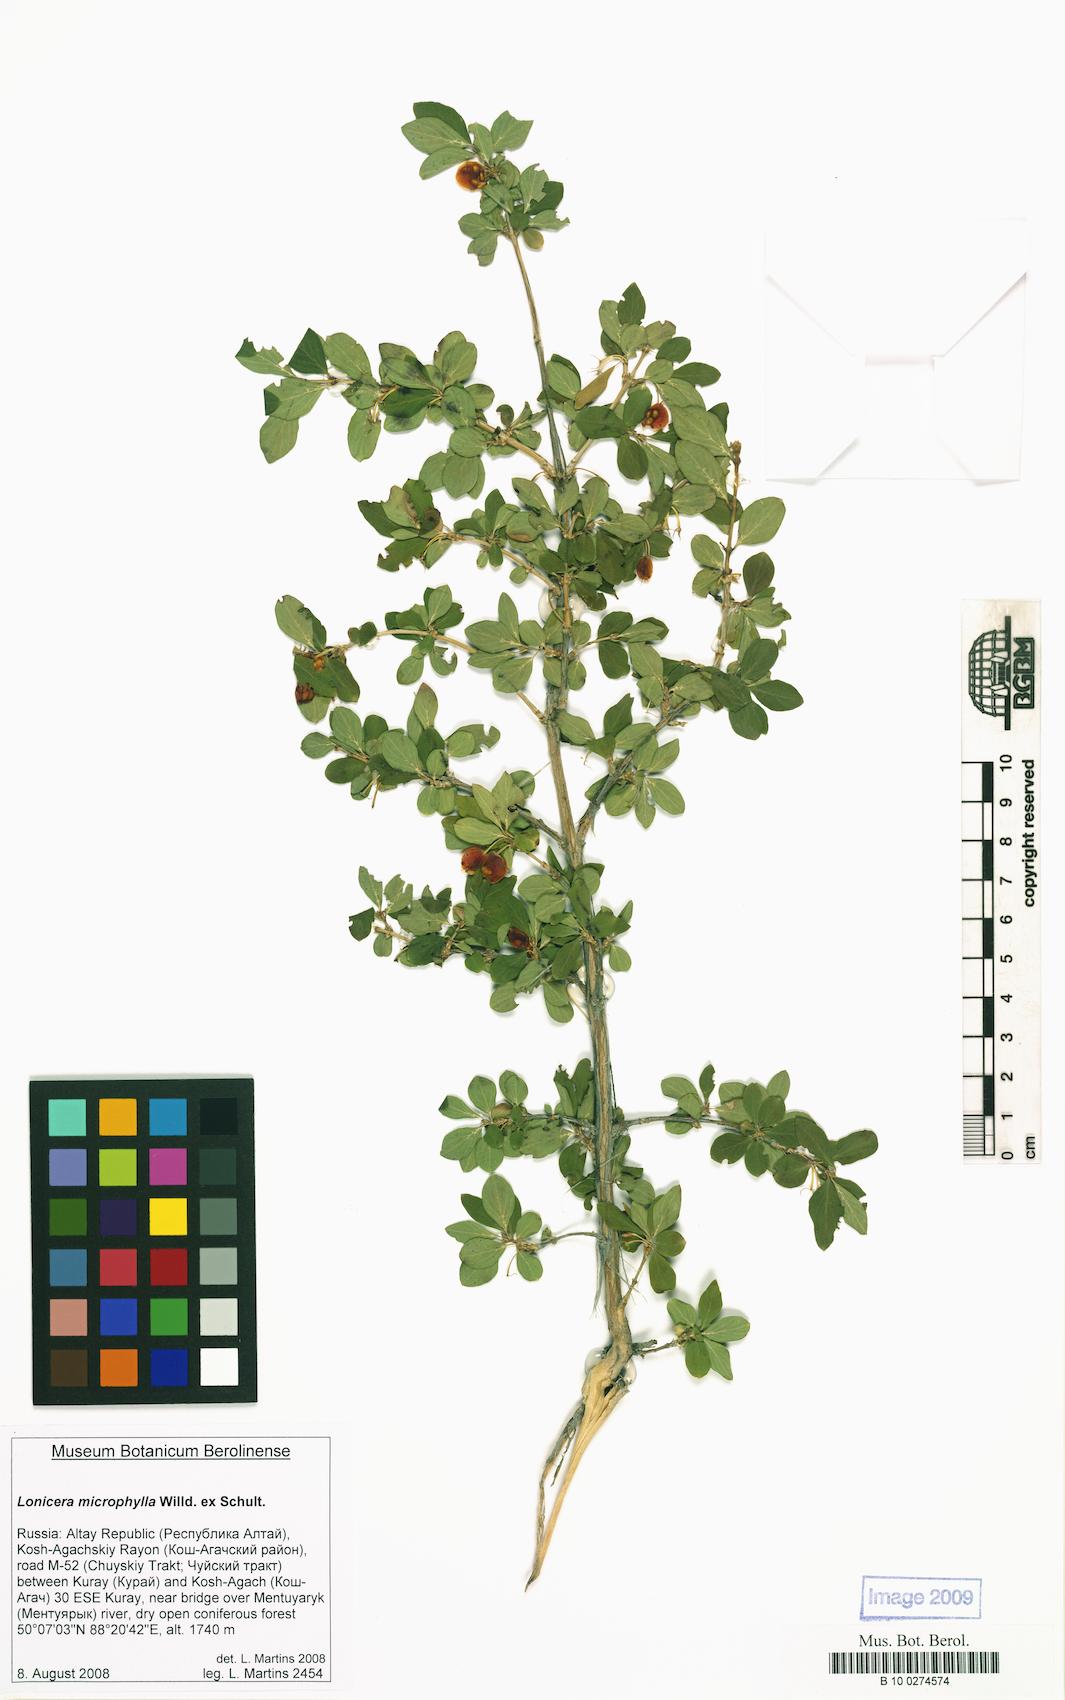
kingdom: Plantae
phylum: Tracheophyta
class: Magnoliopsida
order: Dipsacales
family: Caprifoliaceae
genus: Lonicera
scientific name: Lonicera microphylla
